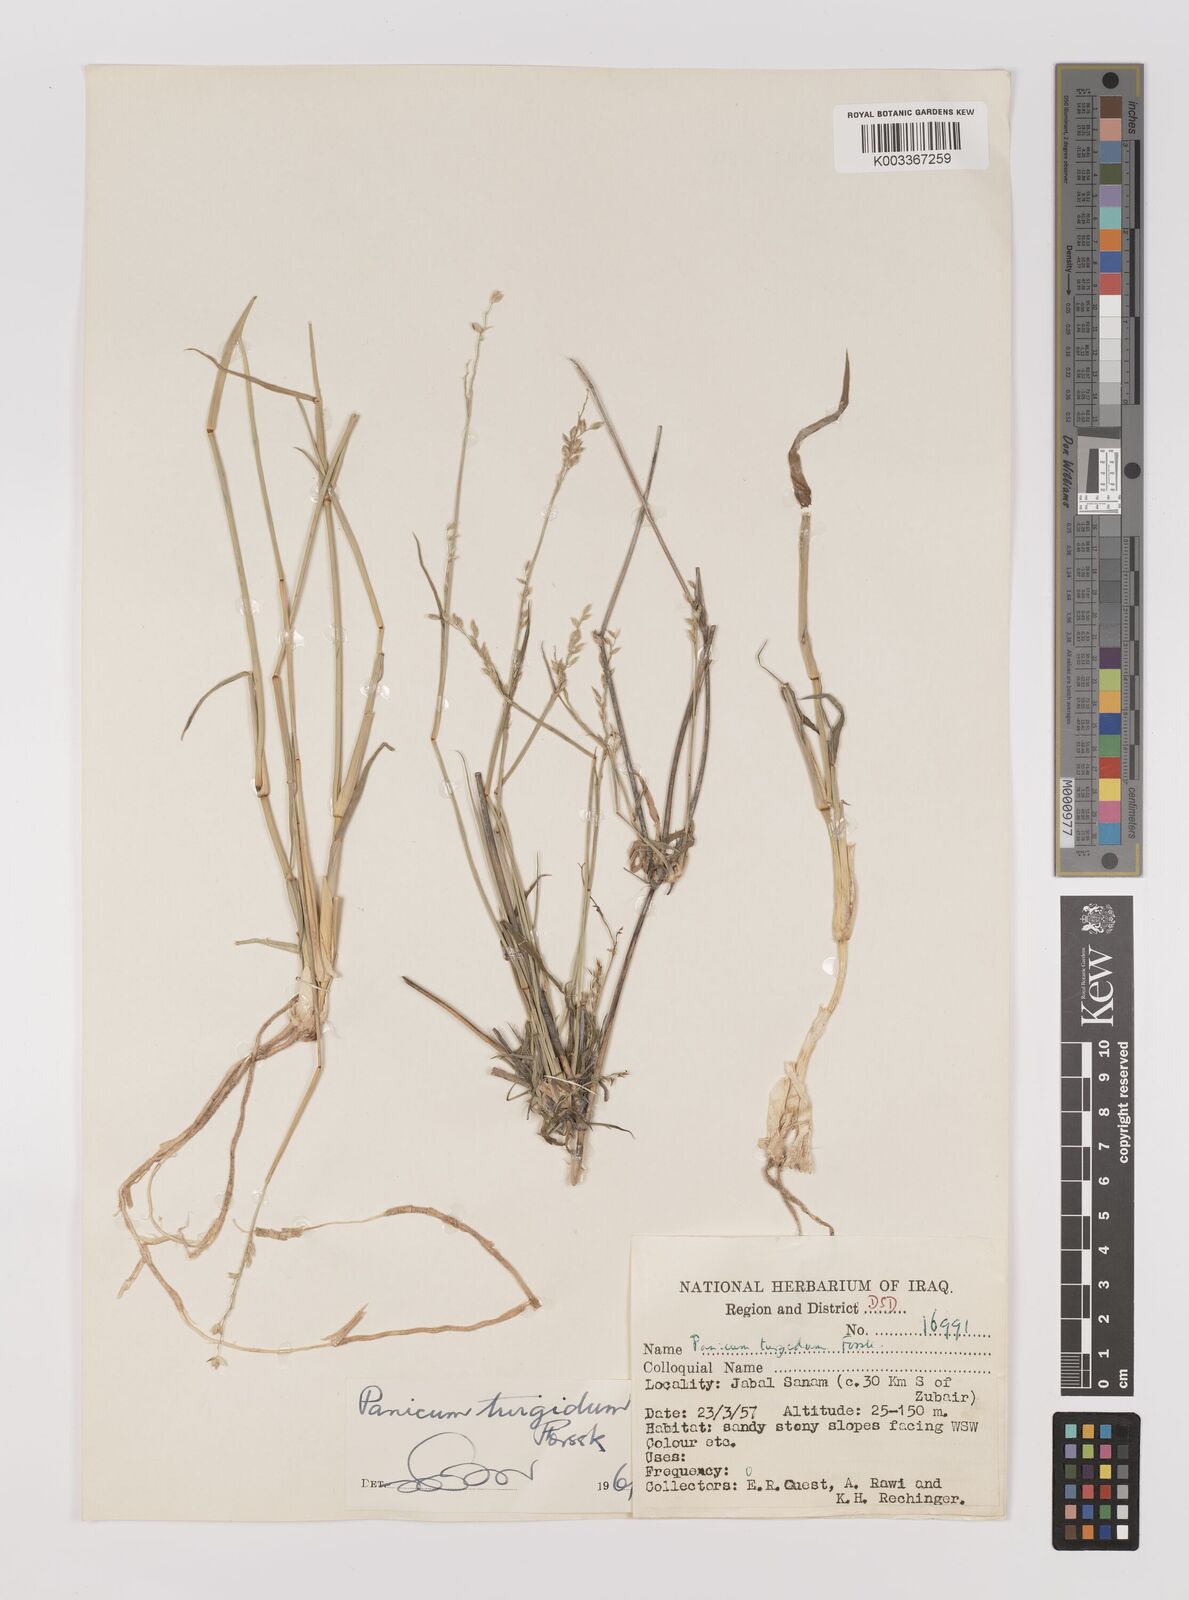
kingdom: Plantae
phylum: Tracheophyta
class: Liliopsida
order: Poales
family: Poaceae
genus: Panicum
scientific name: Panicum turgidum
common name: Desert grass
